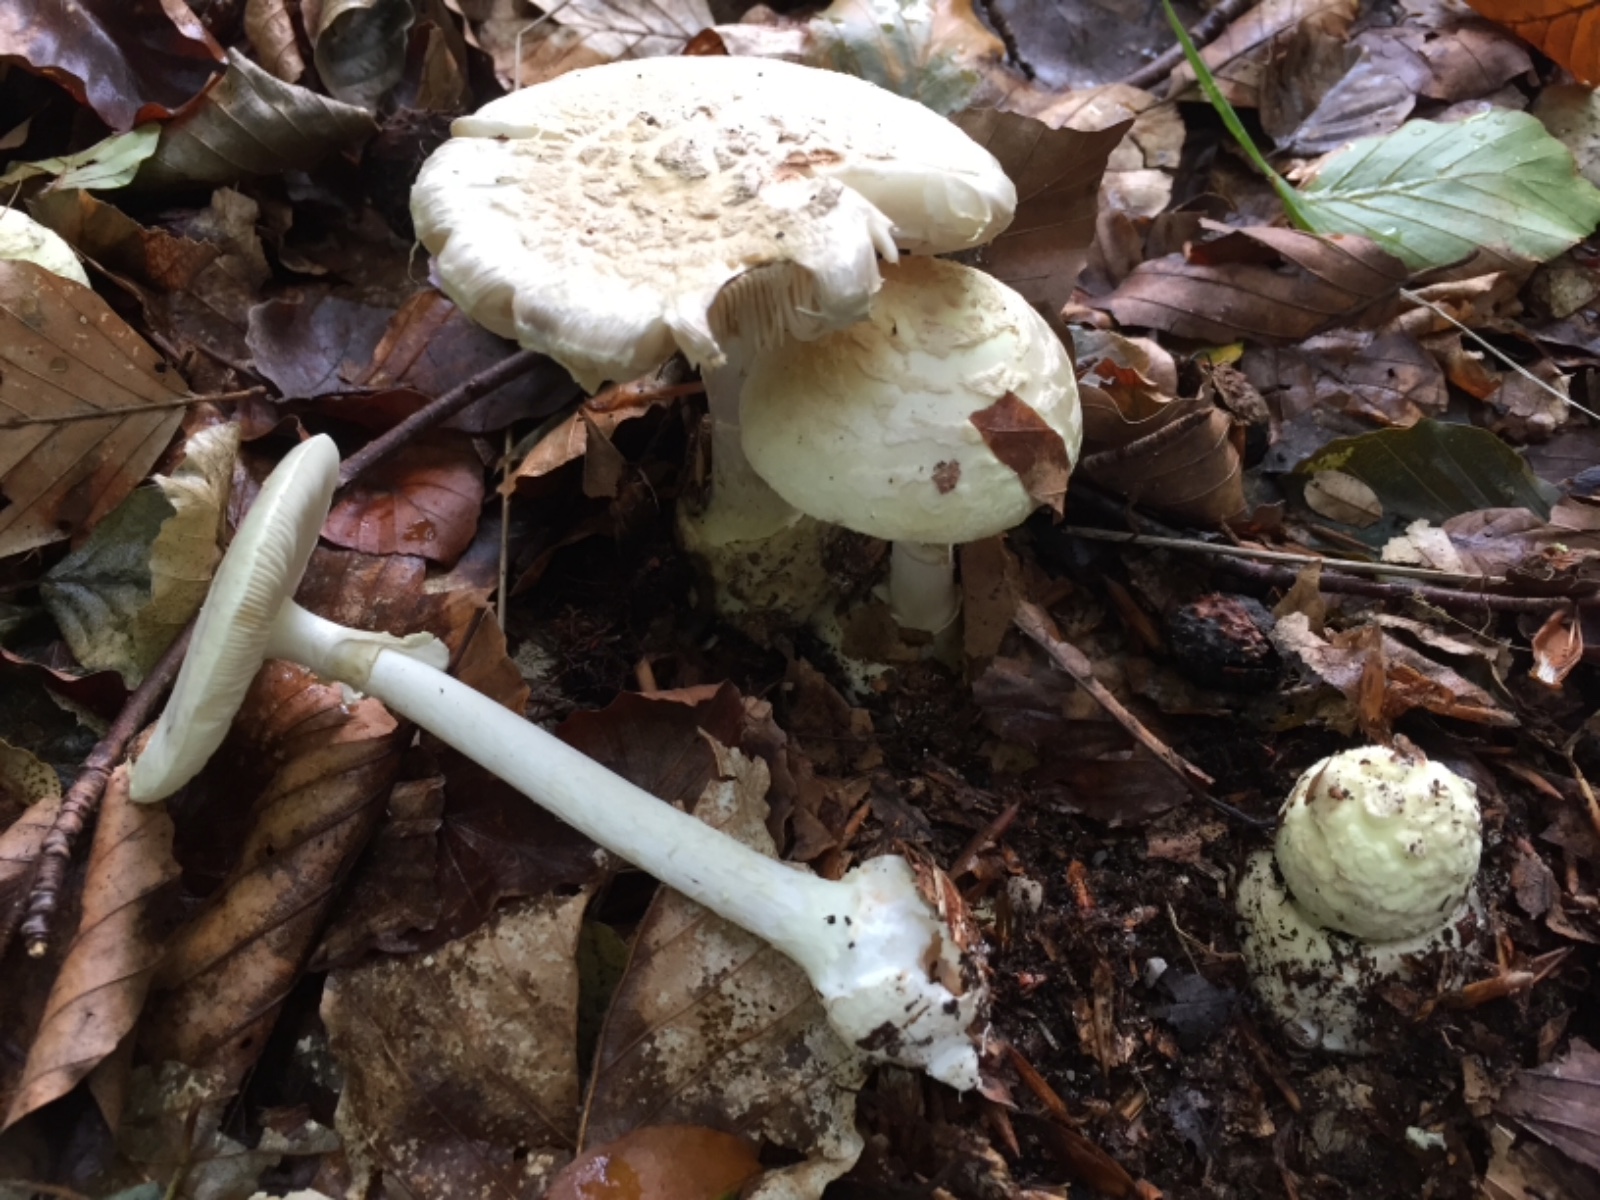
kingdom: Fungi
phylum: Basidiomycota
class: Agaricomycetes
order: Agaricales
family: Amanitaceae
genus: Amanita
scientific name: Amanita citrina
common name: kugleknoldet fluesvamp
